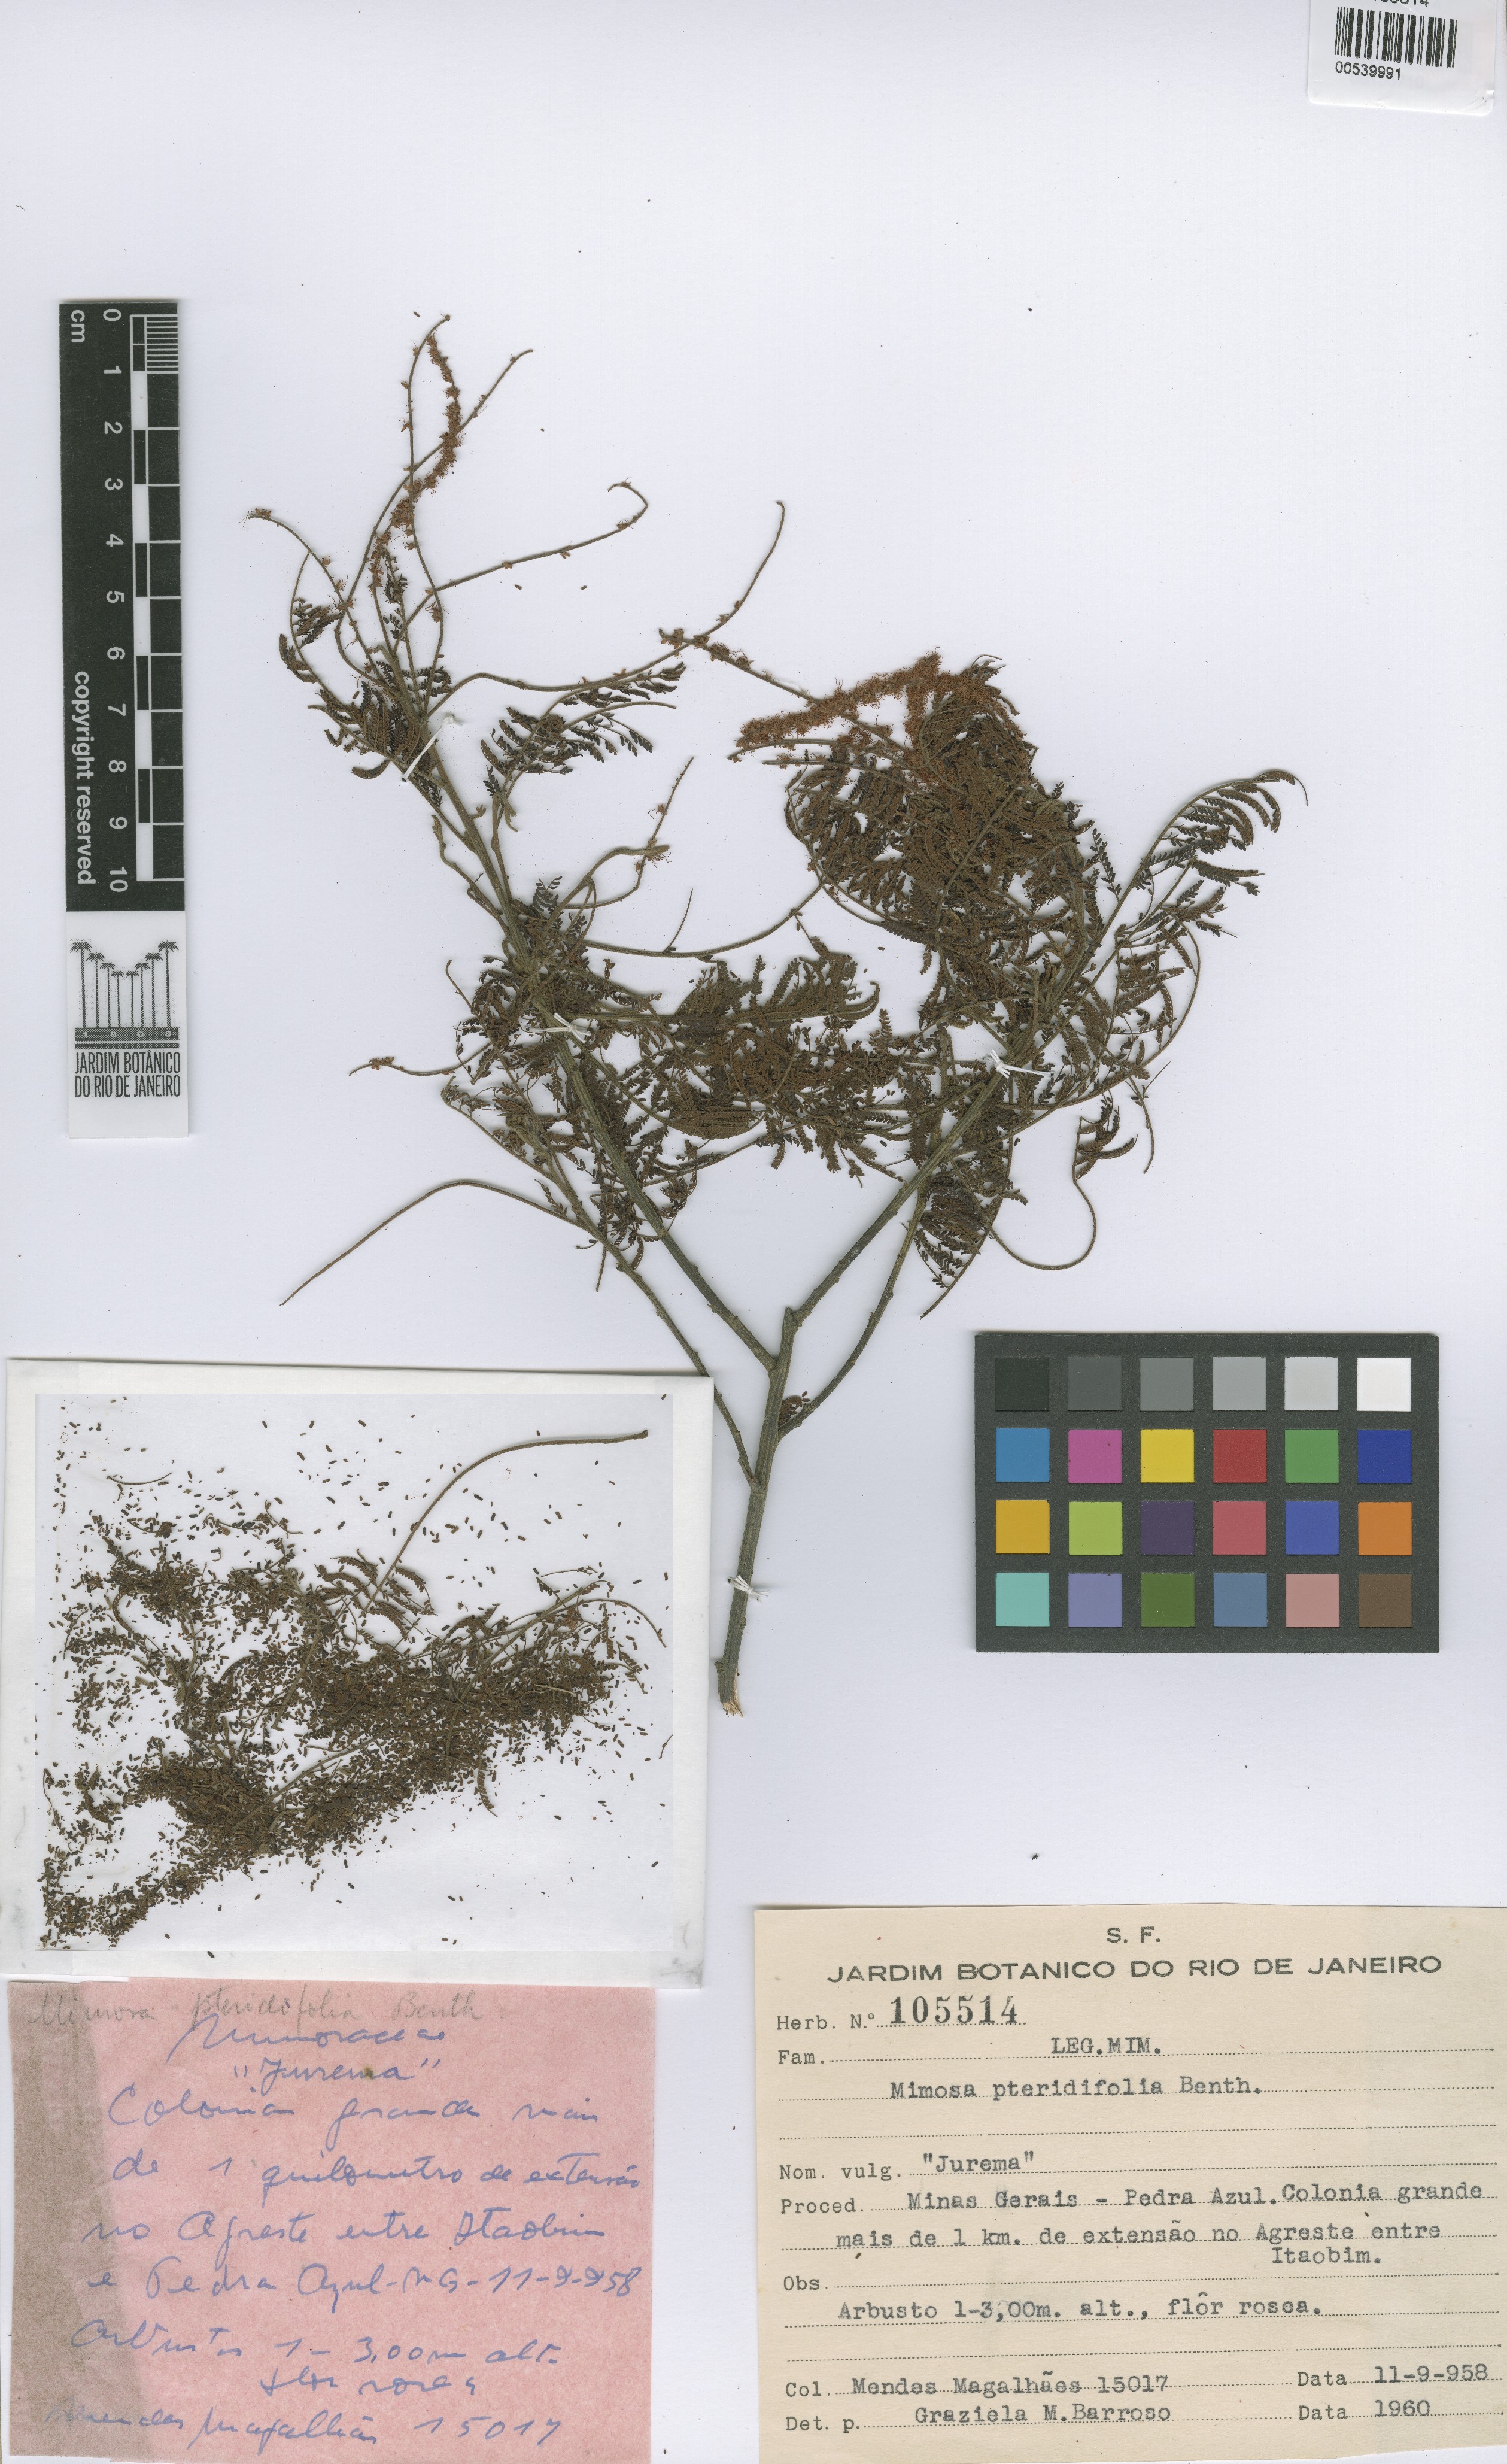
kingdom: Plantae
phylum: Tracheophyta
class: Magnoliopsida
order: Fabales
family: Fabaceae
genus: Mimosa
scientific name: Mimosa gemmulata
